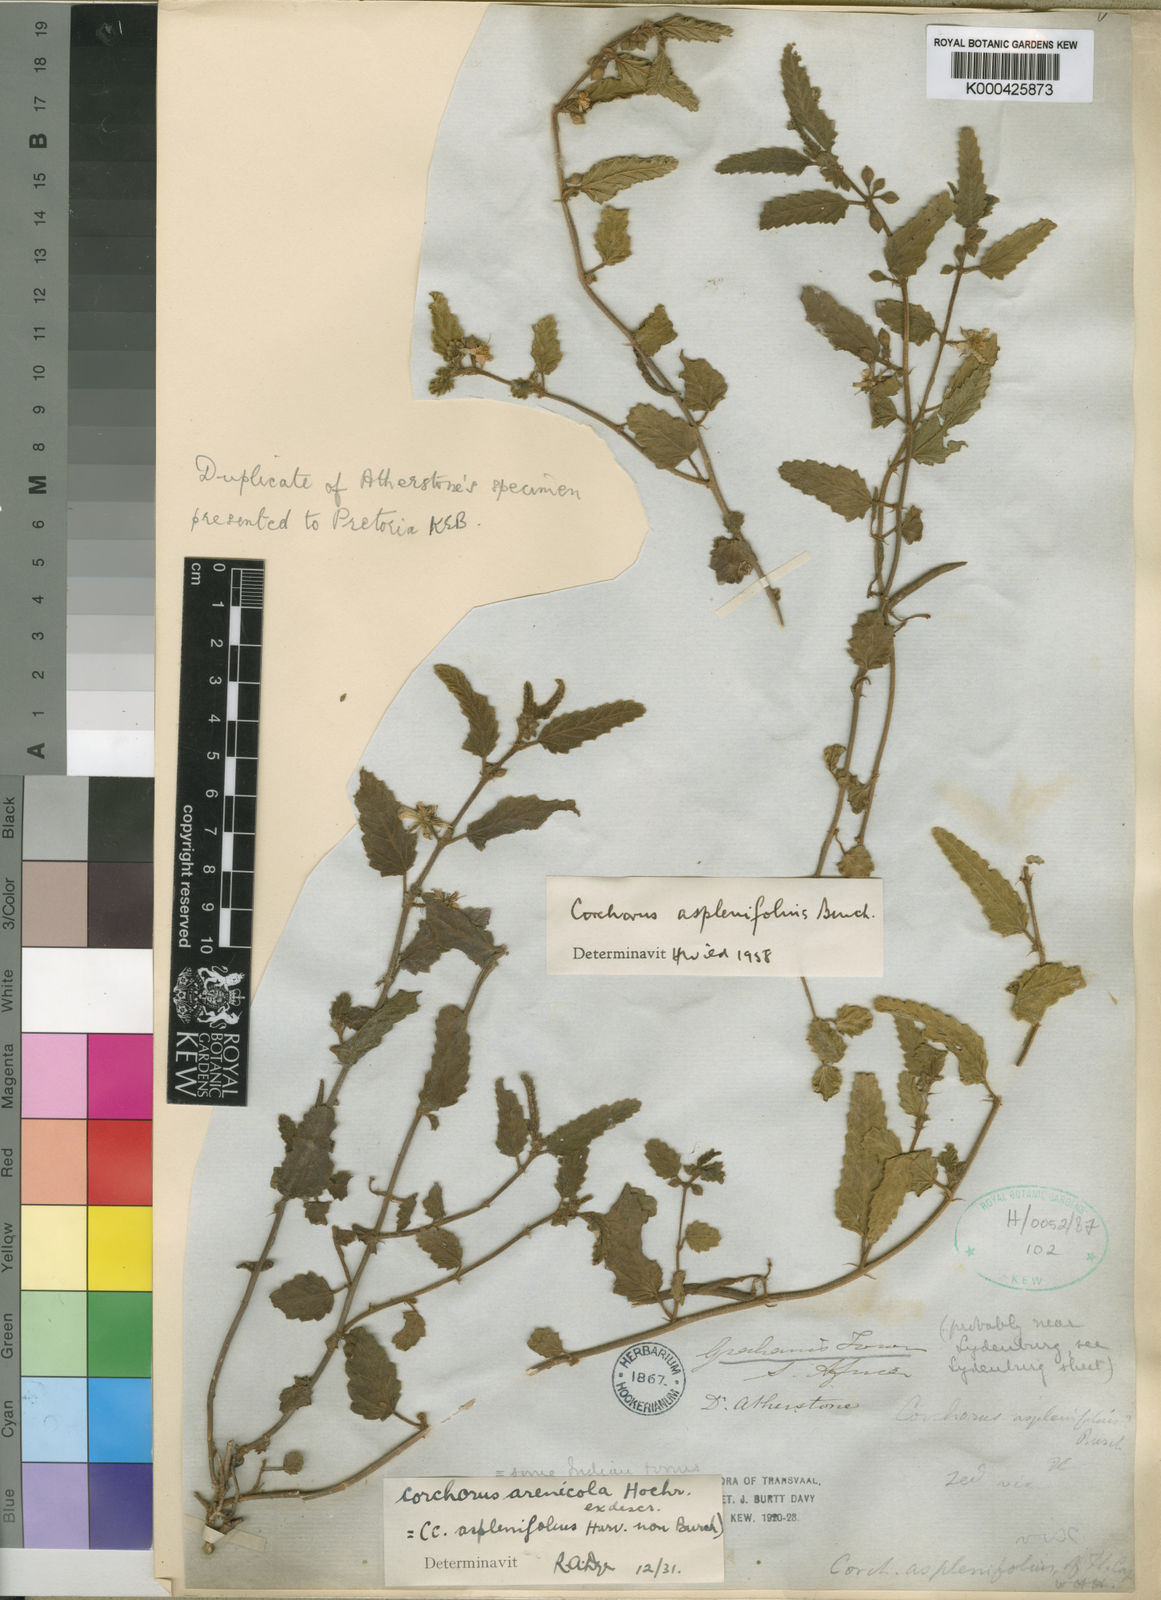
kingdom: Plantae
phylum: Tracheophyta
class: Magnoliopsida
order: Malvales
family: Malvaceae
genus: Corchorus
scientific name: Corchorus asplenifolius
